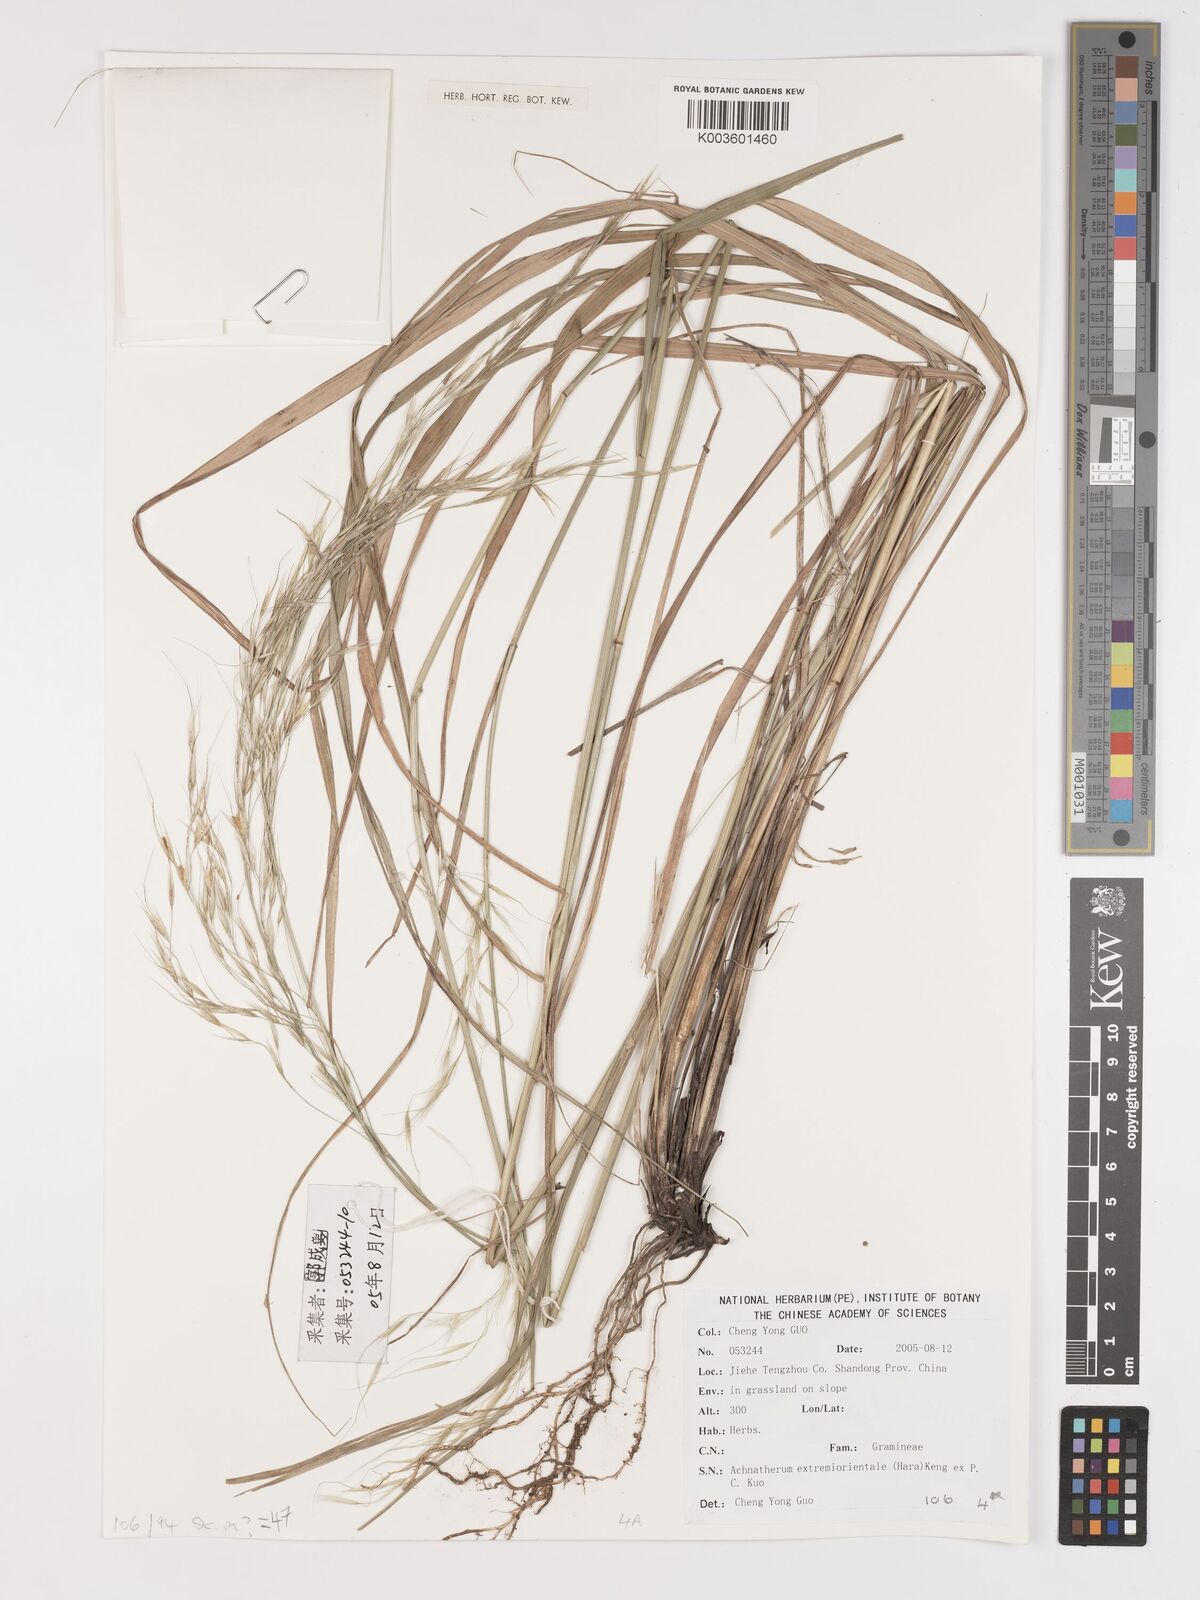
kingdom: Plantae
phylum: Tracheophyta
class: Liliopsida
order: Poales
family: Poaceae
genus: Achnatherum
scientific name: Achnatherum pekinense
